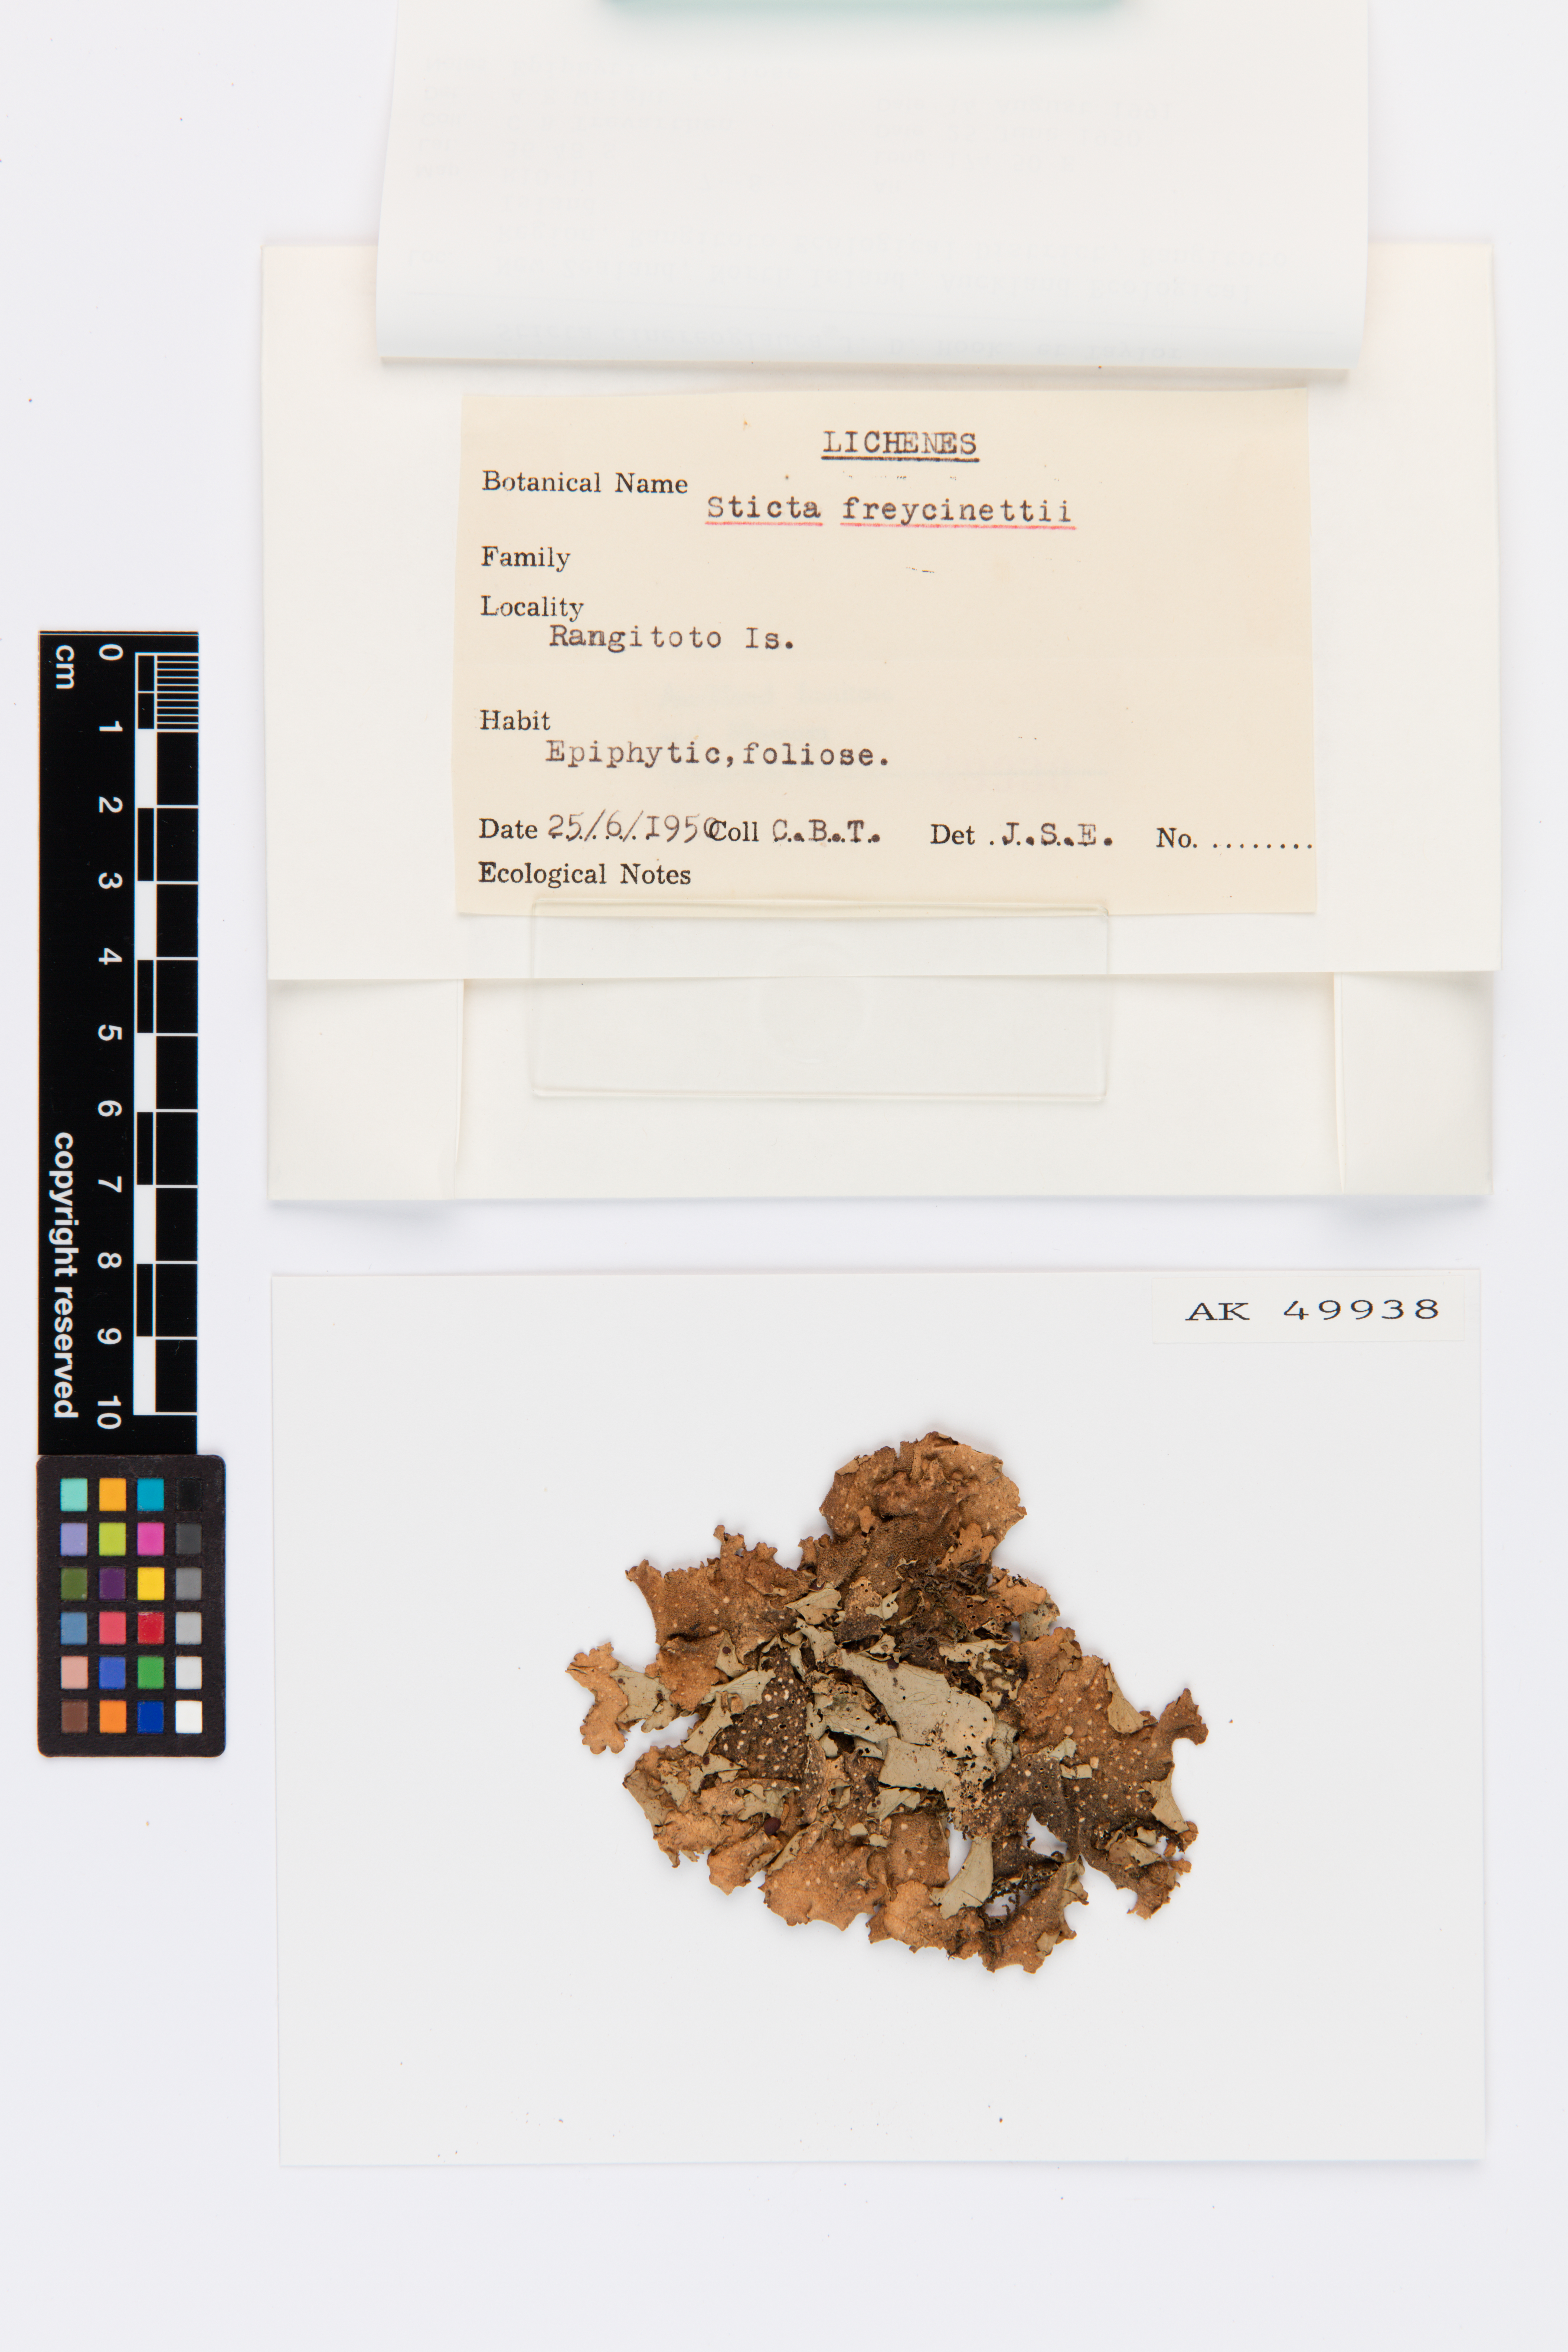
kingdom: Fungi
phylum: Ascomycota
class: Lecanoromycetes
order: Peltigerales
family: Lobariaceae
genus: Sticta
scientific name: Sticta cinereoglauca
